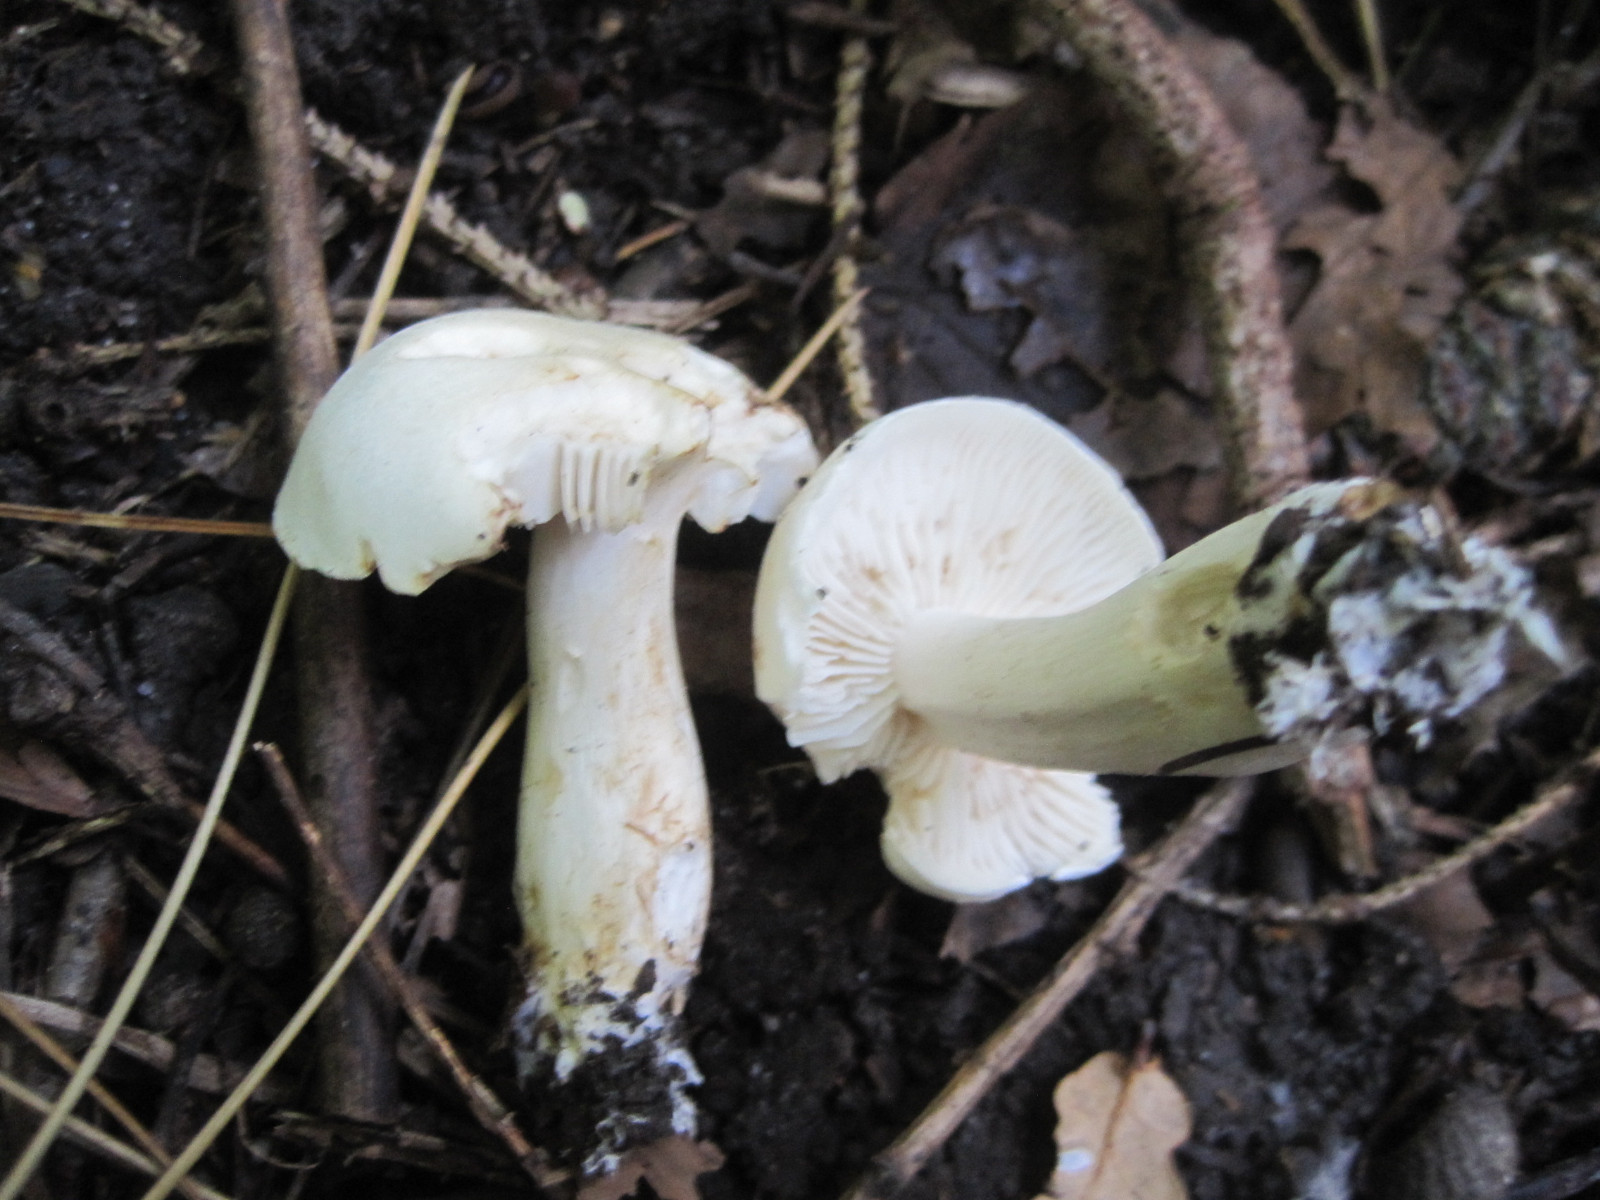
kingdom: Fungi
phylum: Basidiomycota
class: Agaricomycetes
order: Agaricales
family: Tricholomataceae
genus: Tricholoma
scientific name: Tricholoma lascivum
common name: stinkende ridderhat
